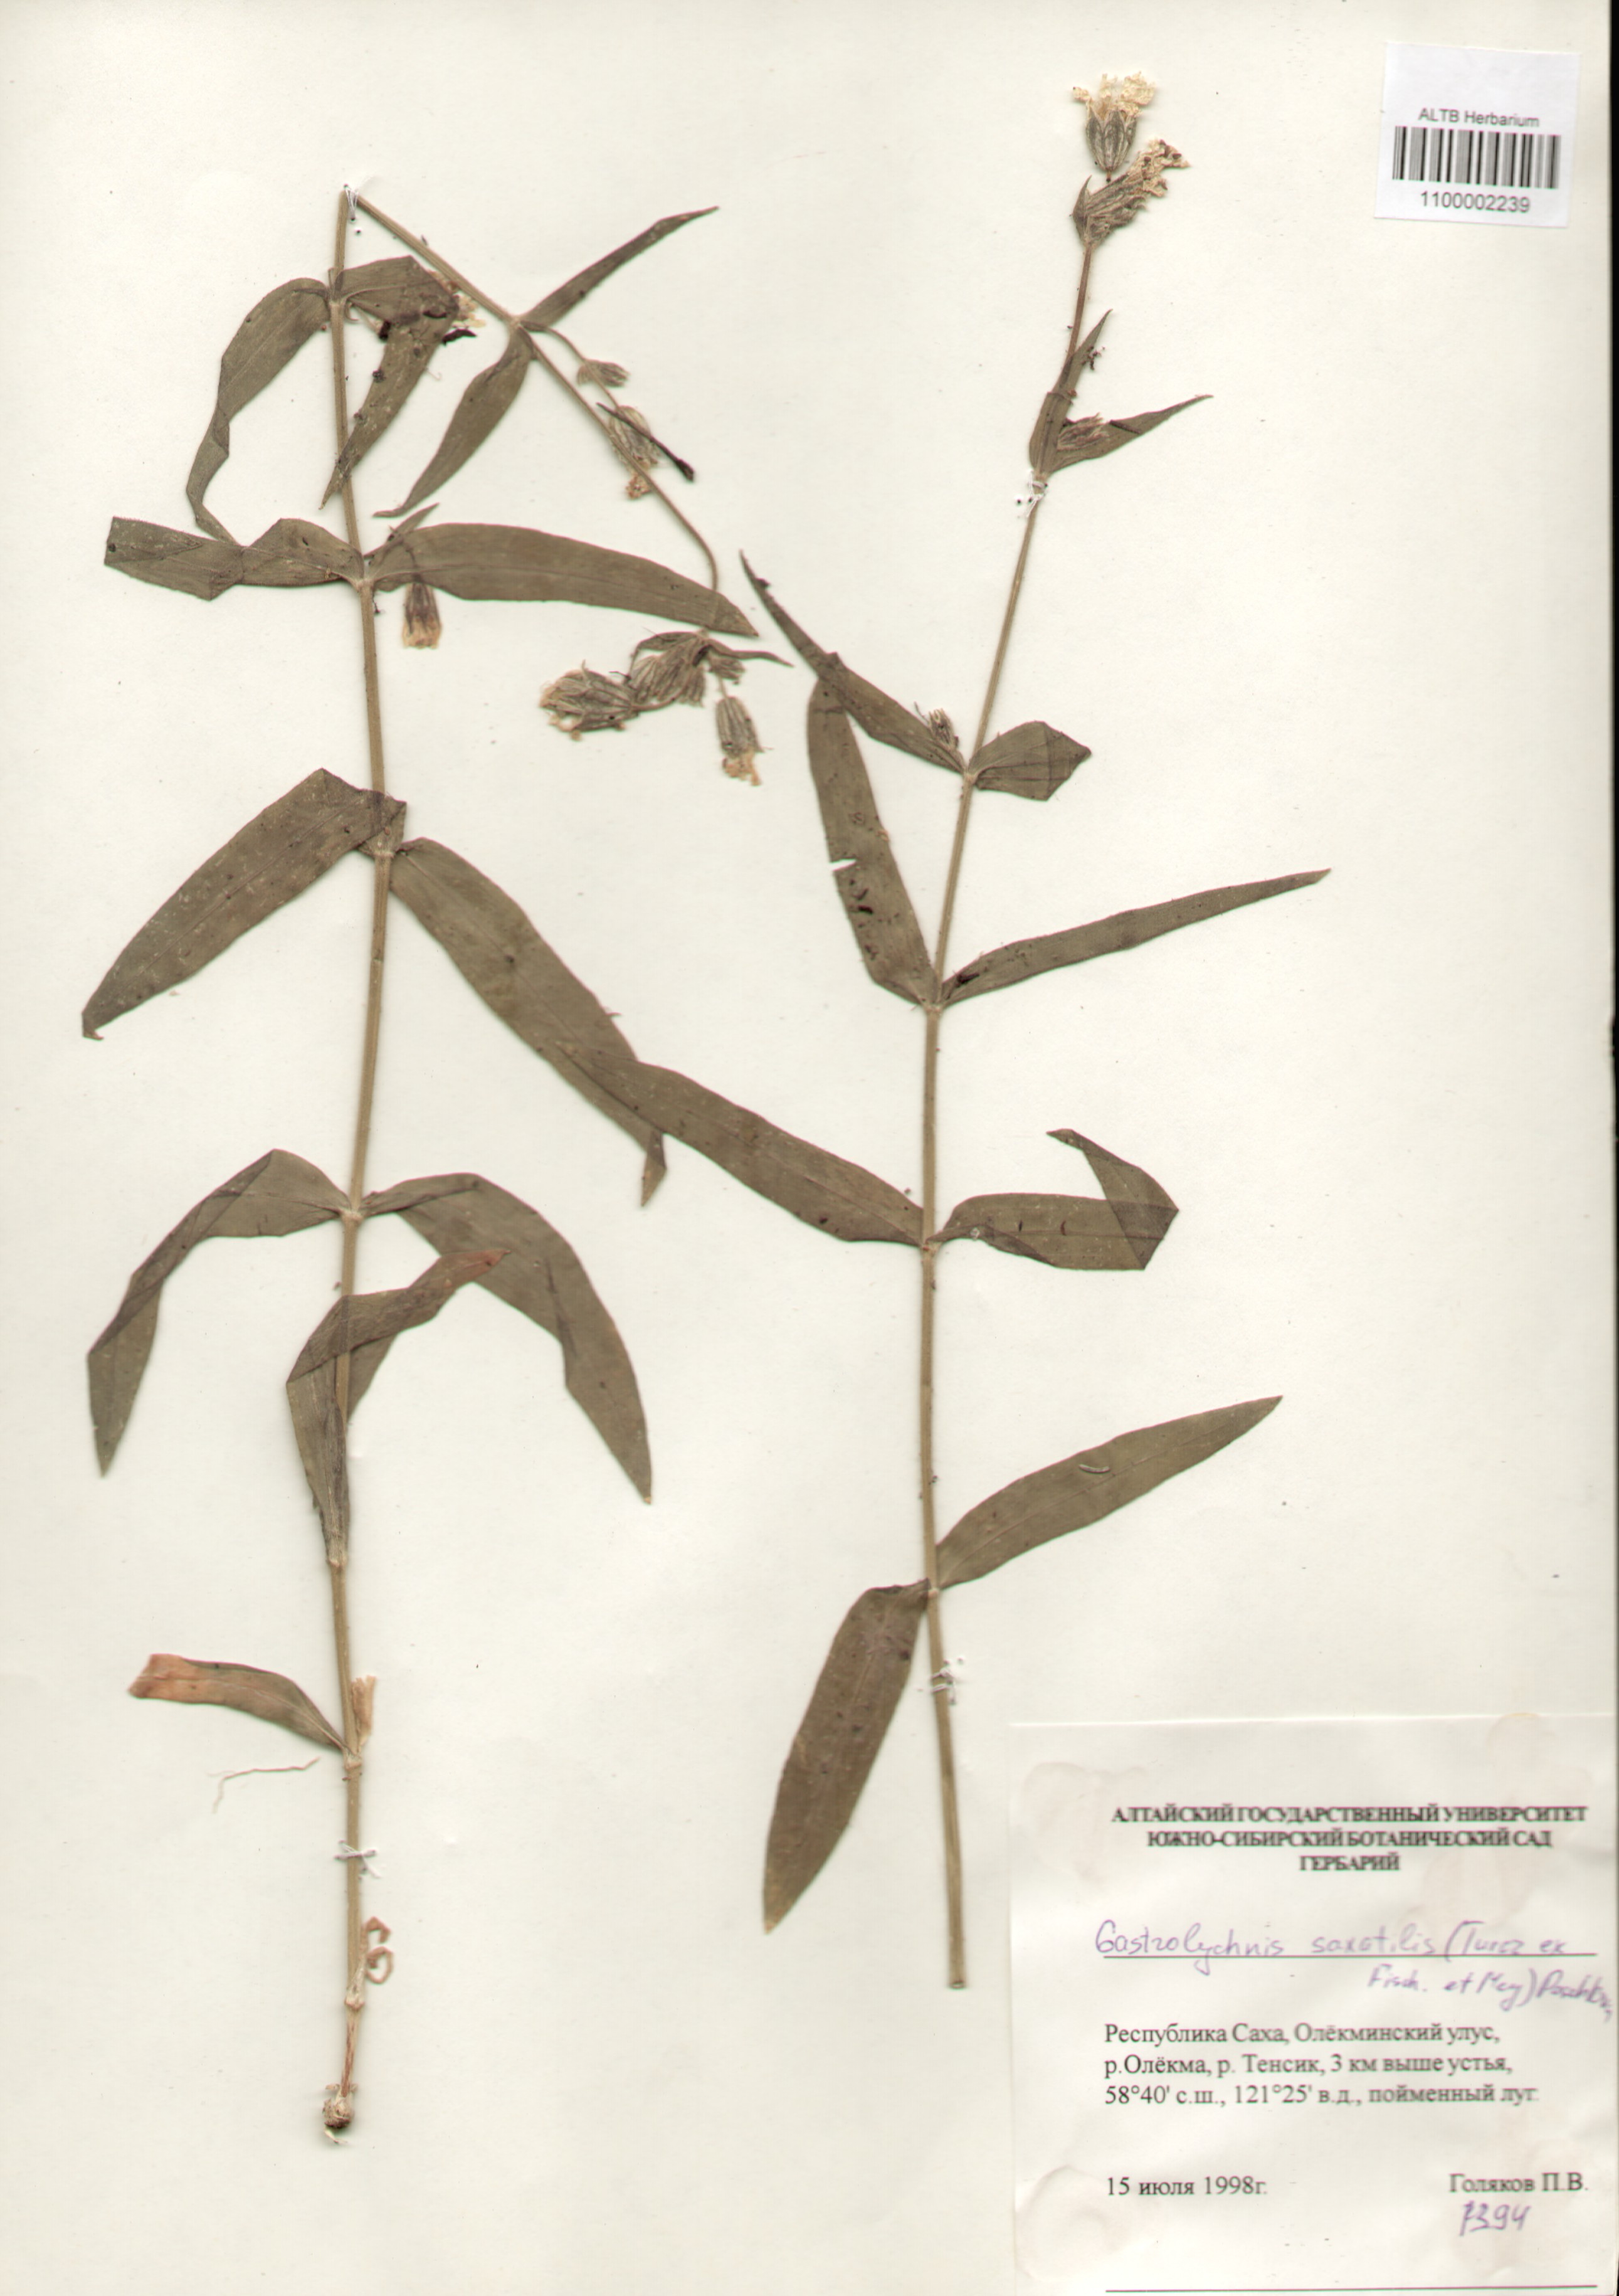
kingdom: Plantae
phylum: Tracheophyta
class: Magnoliopsida
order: Caryophyllales
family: Caryophyllaceae
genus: Silene
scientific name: Silene tolmatchevii
